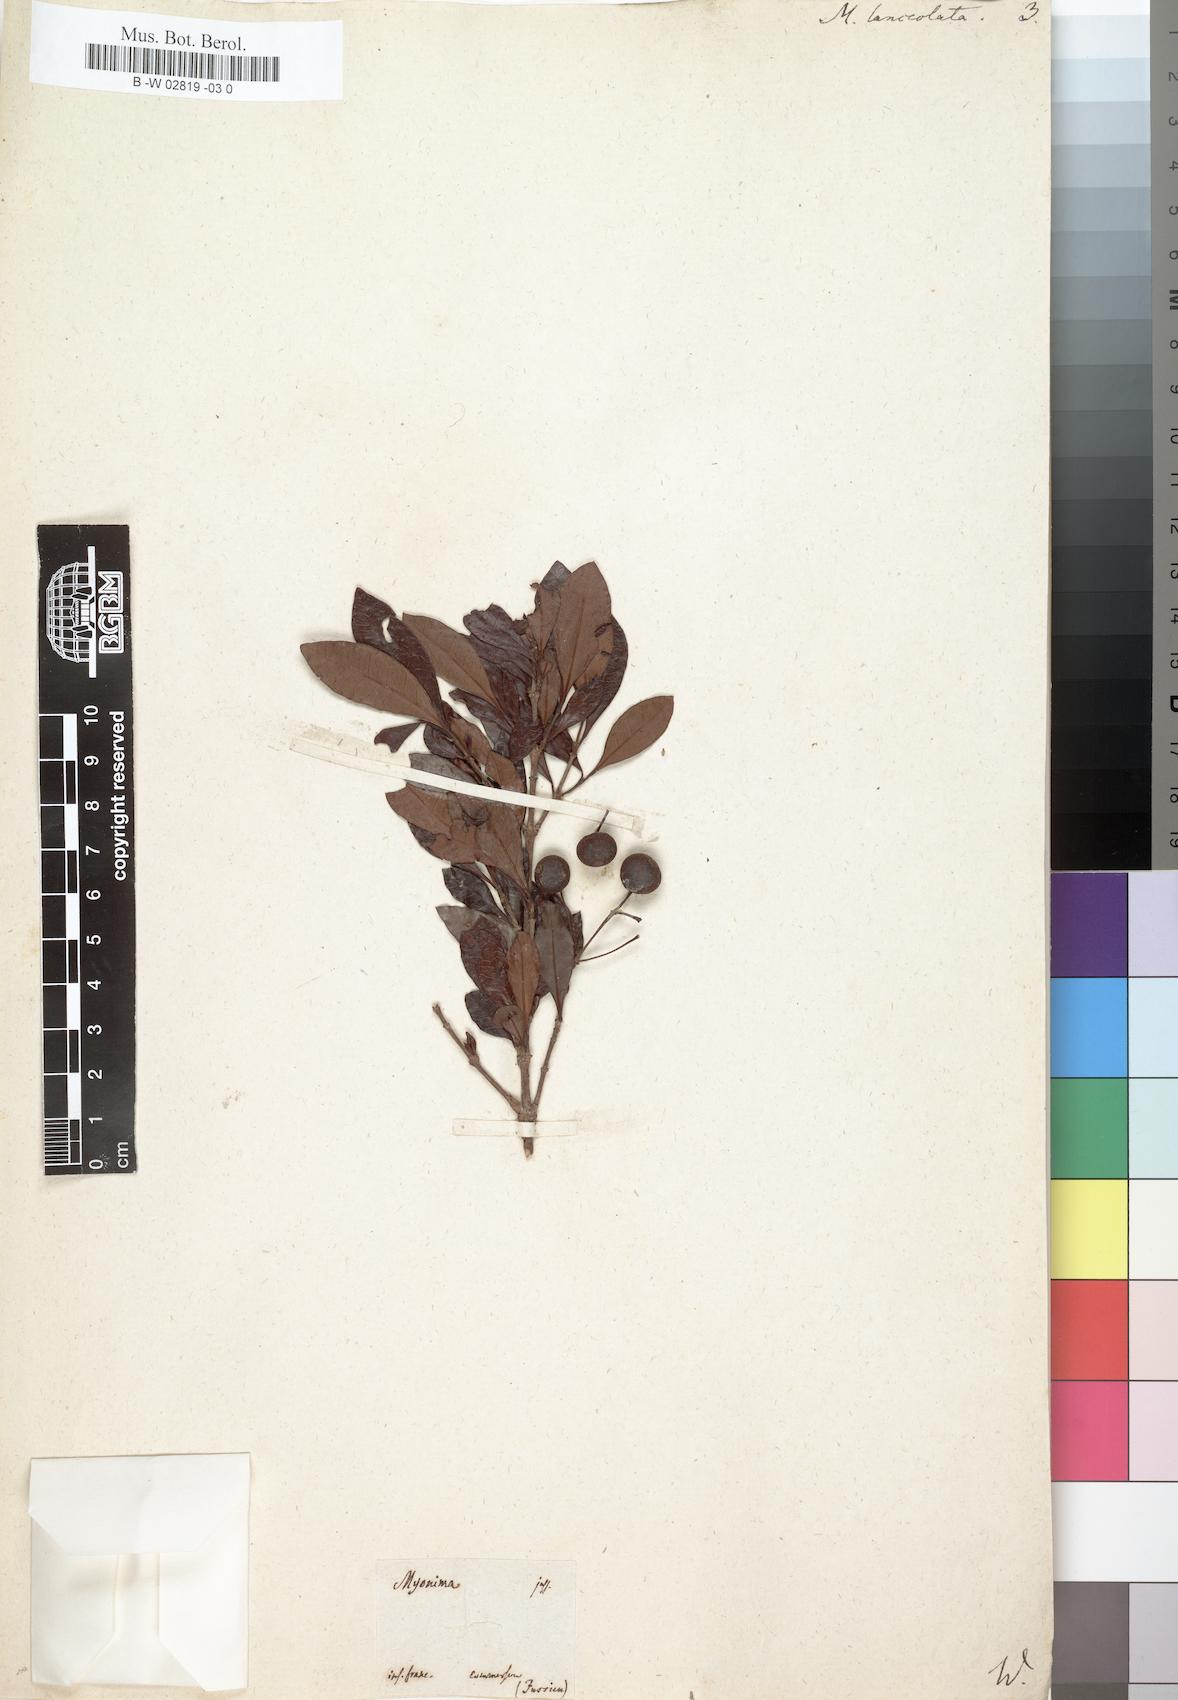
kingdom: Plantae
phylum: Tracheophyta
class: Magnoliopsida
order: Gentianales
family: Rubiaceae
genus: Ixora
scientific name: Ixora borboniae
